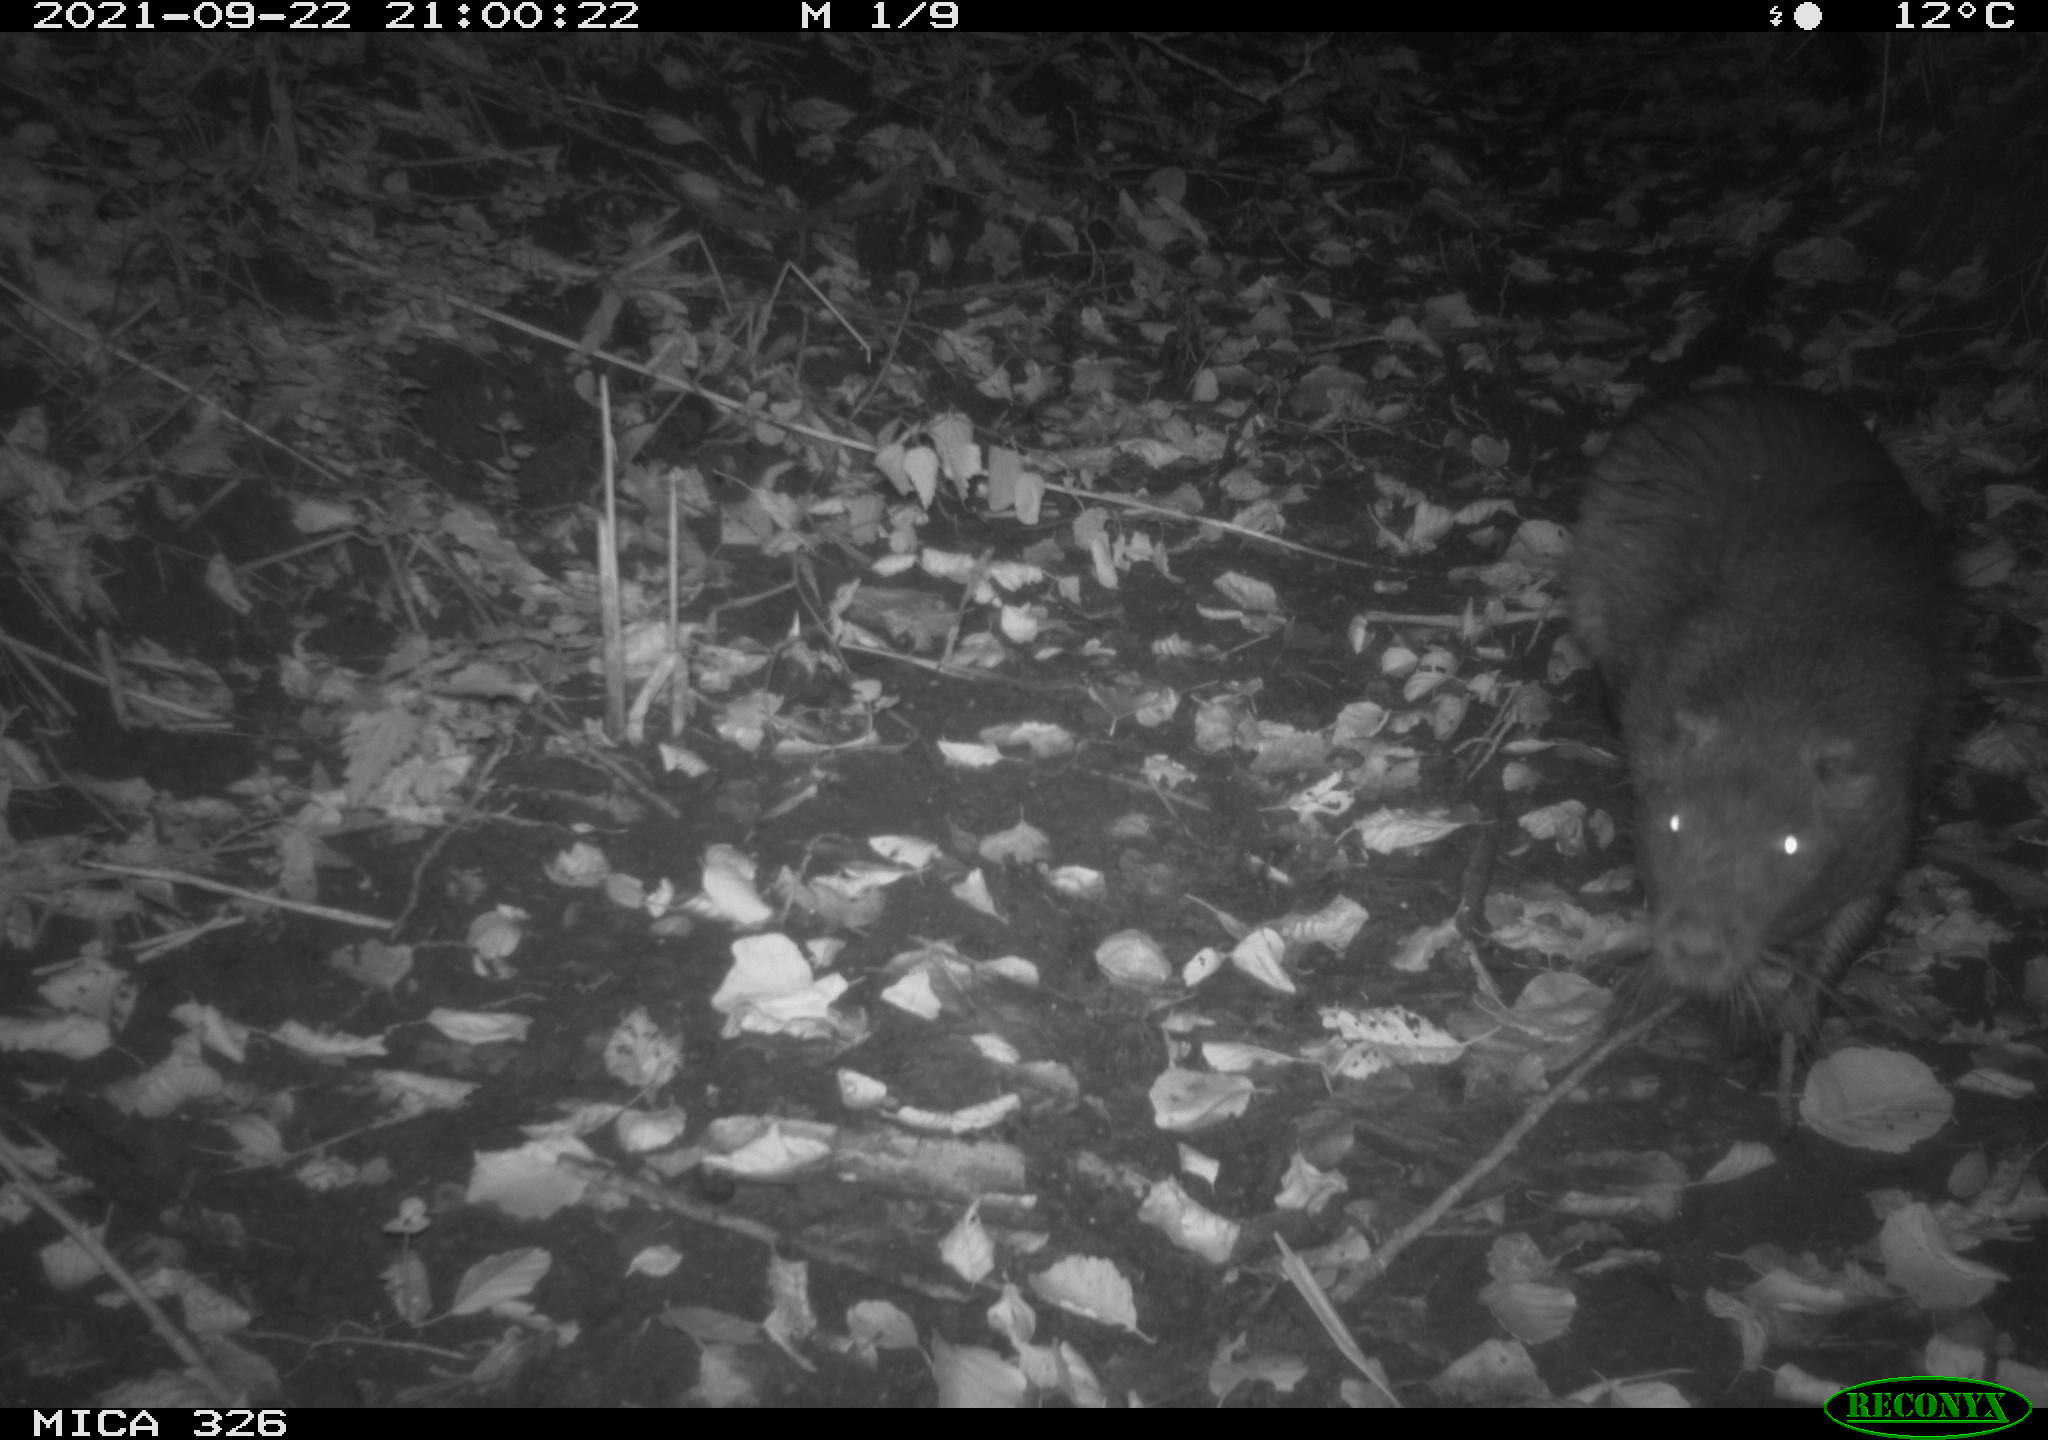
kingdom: Animalia
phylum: Chordata
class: Mammalia
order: Rodentia
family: Myocastoridae
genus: Myocastor
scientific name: Myocastor coypus
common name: Coypu
